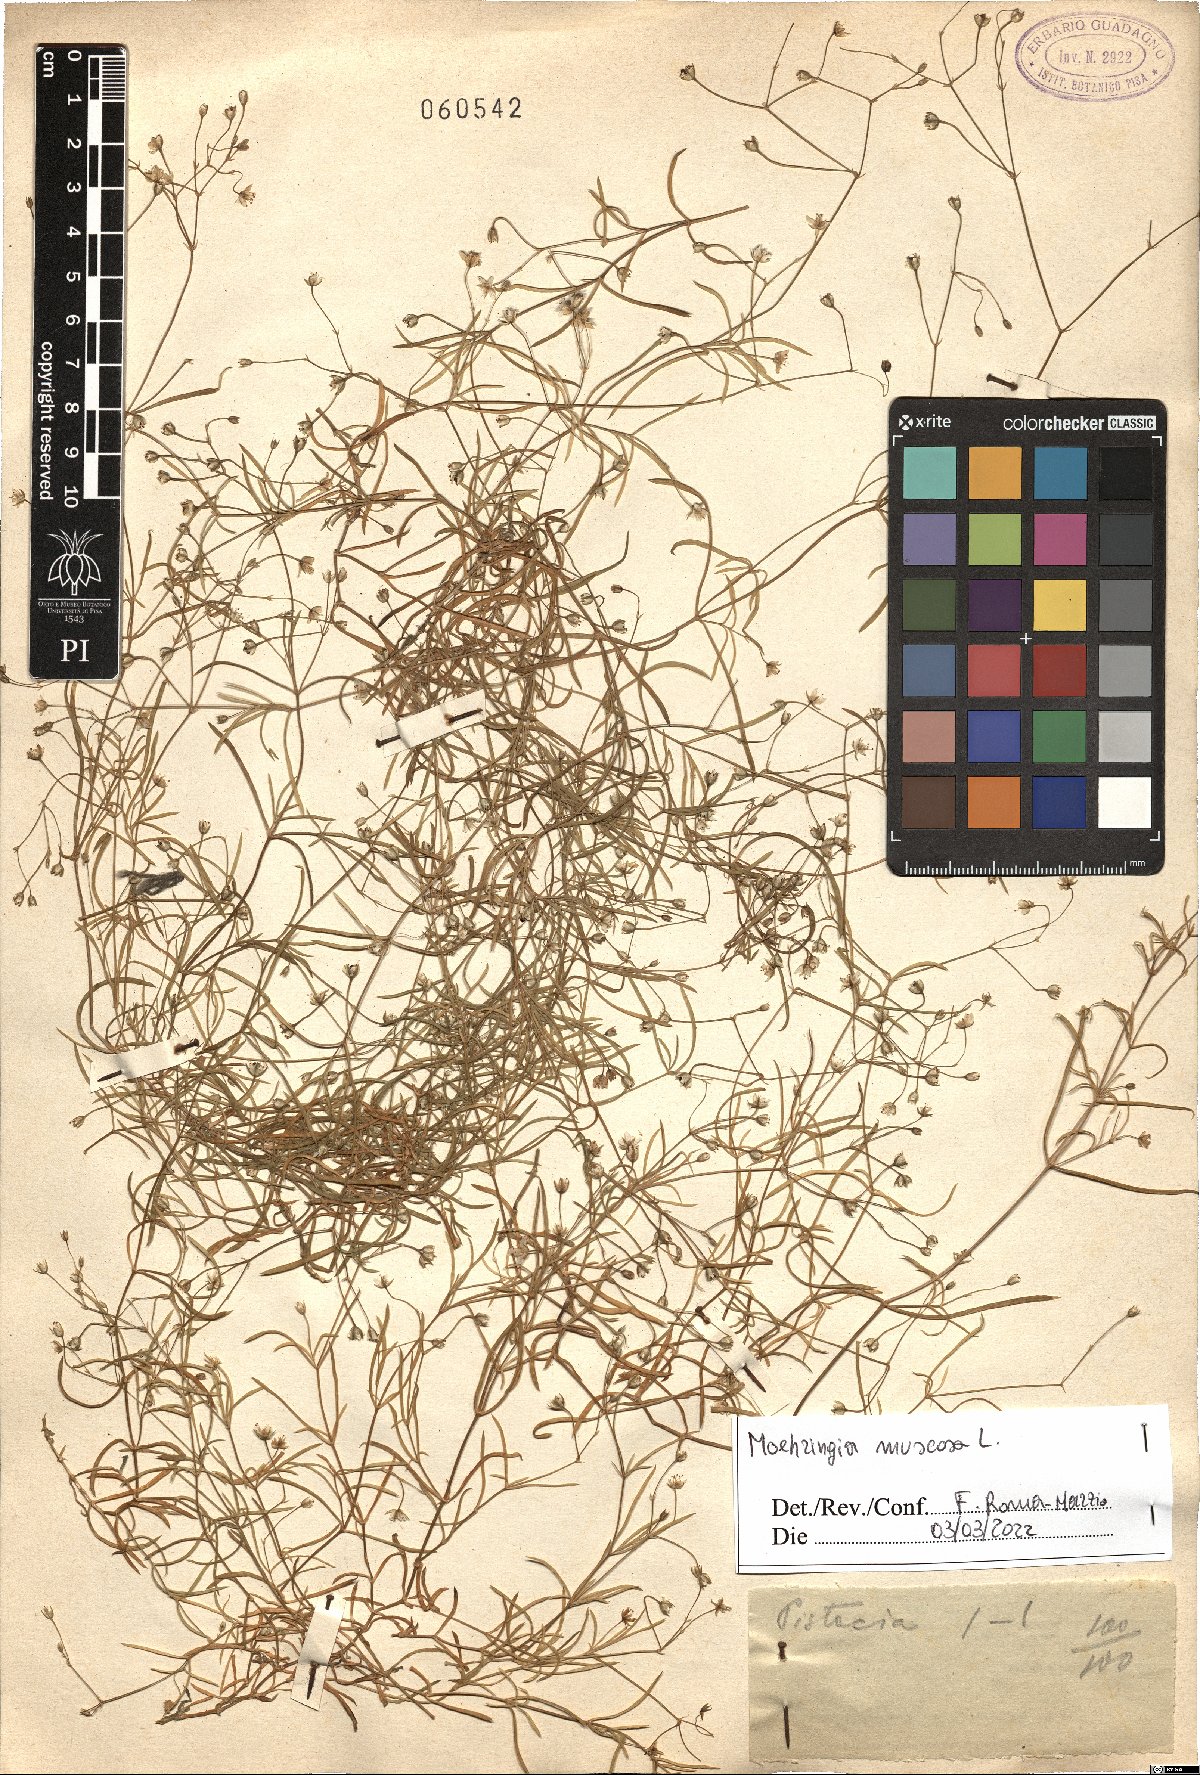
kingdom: Plantae
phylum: Tracheophyta
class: Magnoliopsida
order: Caryophyllales
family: Caryophyllaceae
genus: Moehringia
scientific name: Moehringia muscosa
